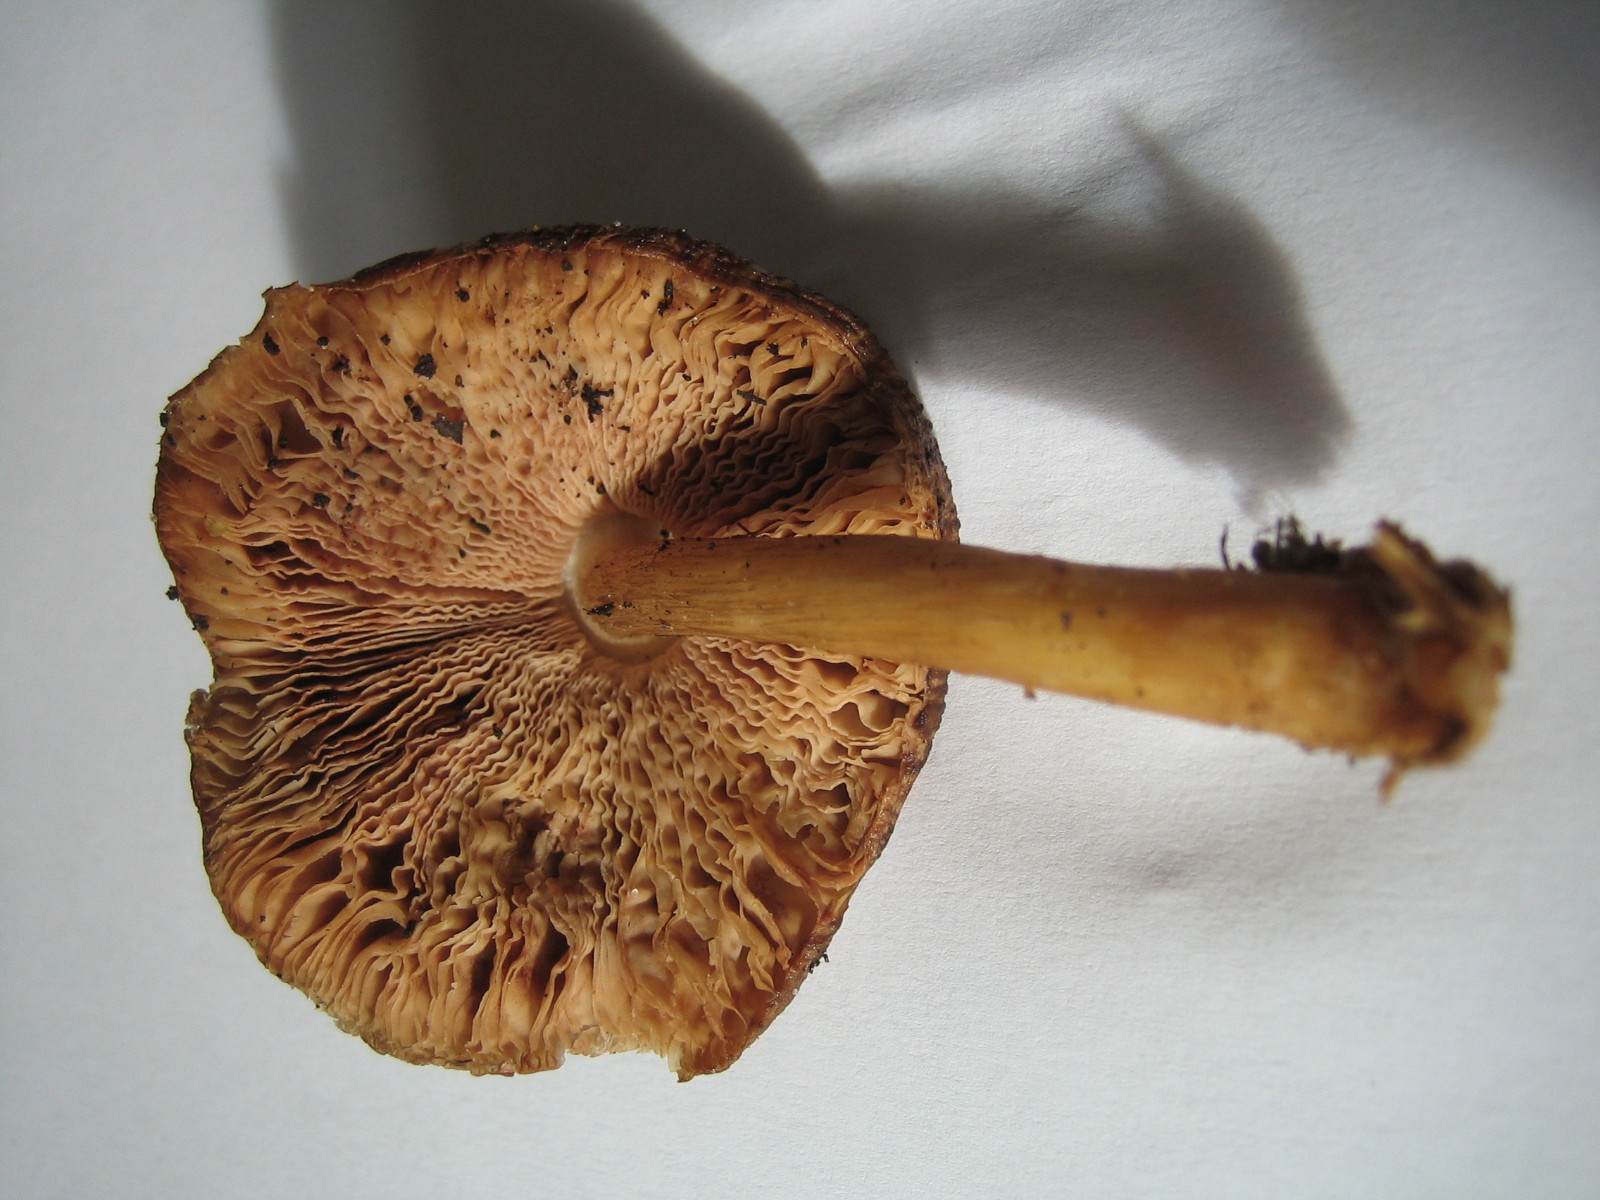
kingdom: Fungi
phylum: Basidiomycota
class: Agaricomycetes
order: Agaricales
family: Pluteaceae
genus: Pluteus
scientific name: Pluteus cervinus
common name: sodfarvet skærmhat
